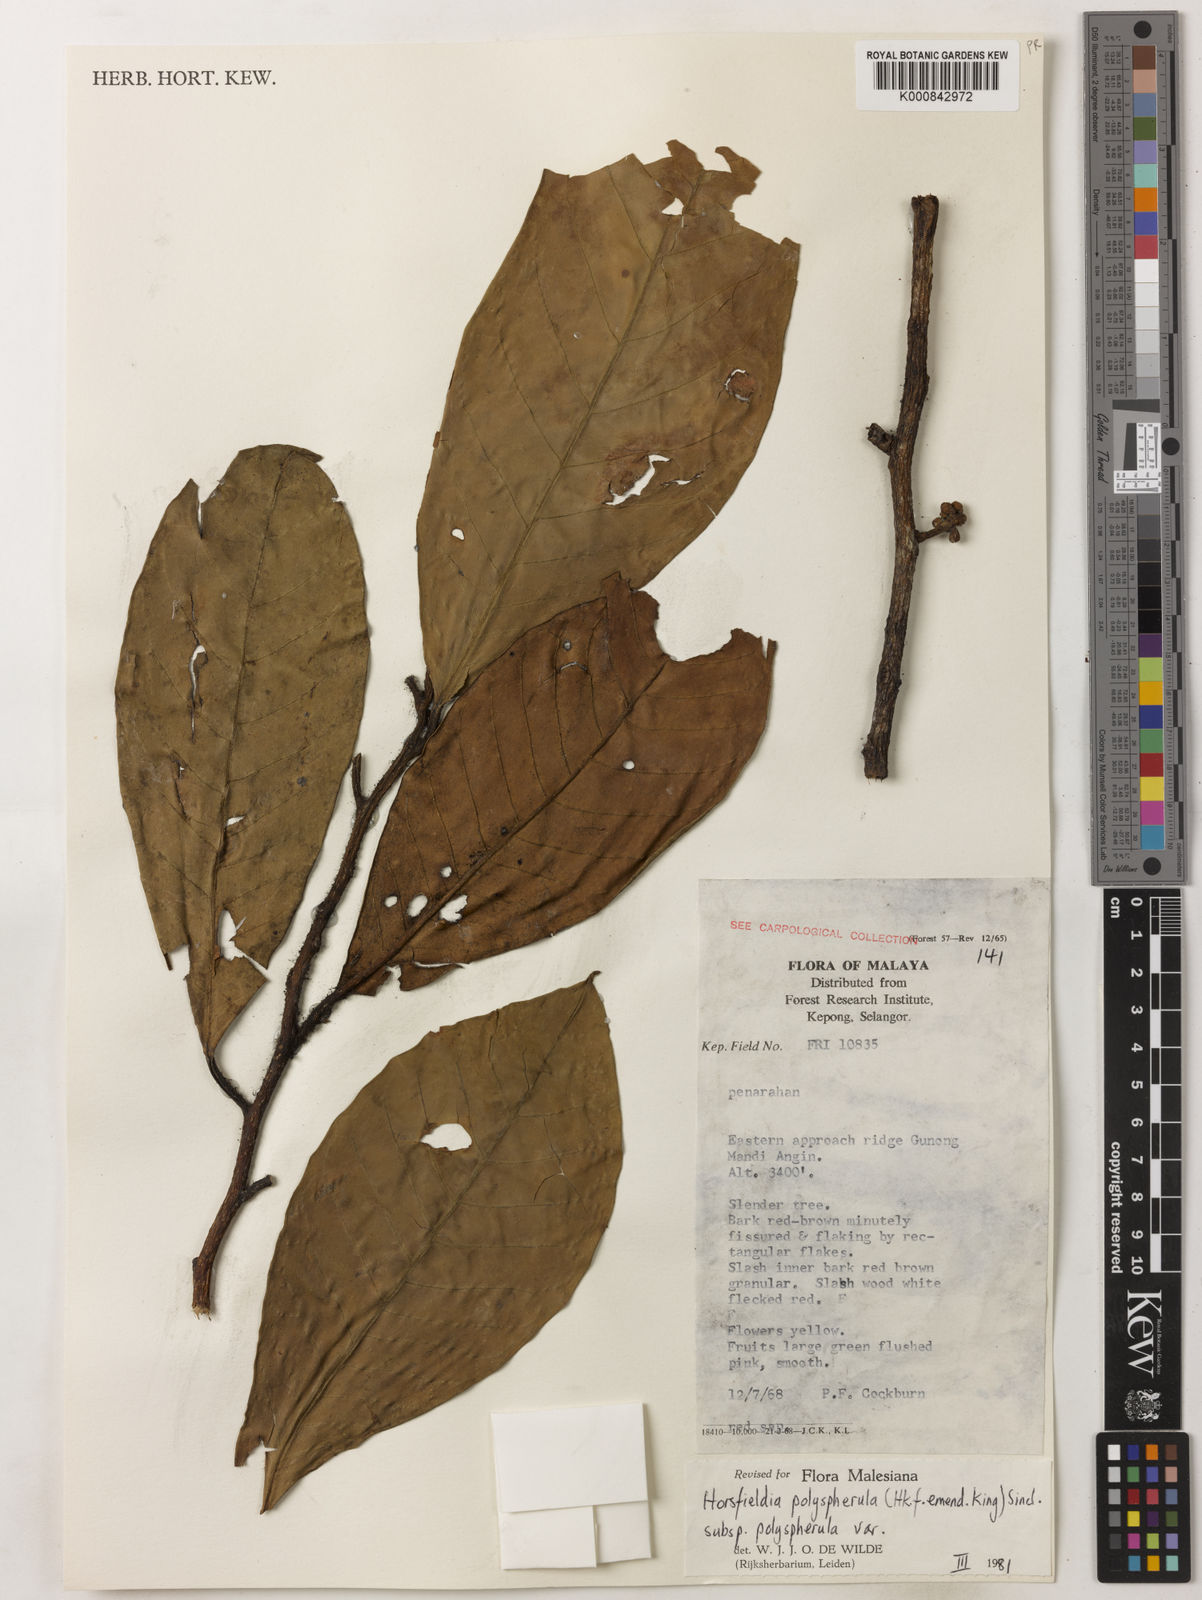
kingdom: Plantae
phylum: Tracheophyta
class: Magnoliopsida
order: Magnoliales
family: Myristicaceae
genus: Horsfieldia
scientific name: Horsfieldia polyspherula
